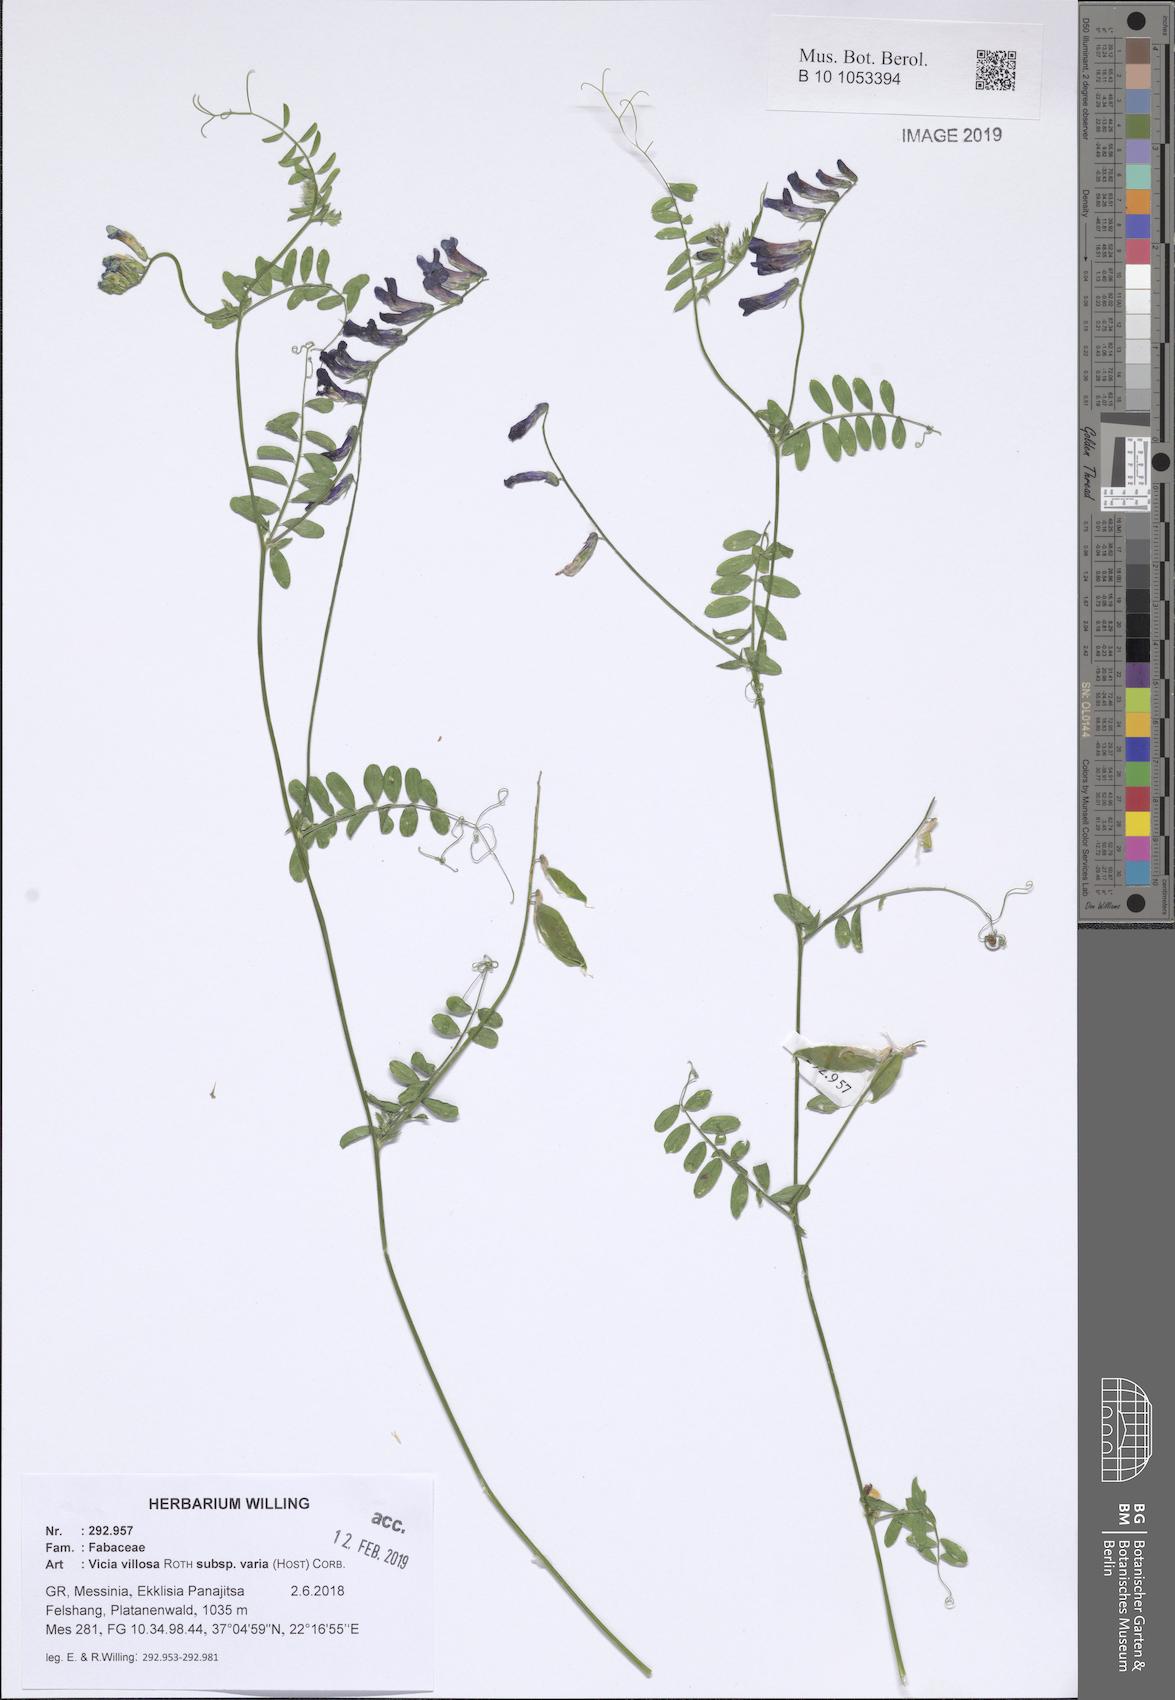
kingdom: Plantae
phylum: Tracheophyta
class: Magnoliopsida
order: Fabales
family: Fabaceae
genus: Vicia
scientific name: Vicia villosa
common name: Fodder vetch
